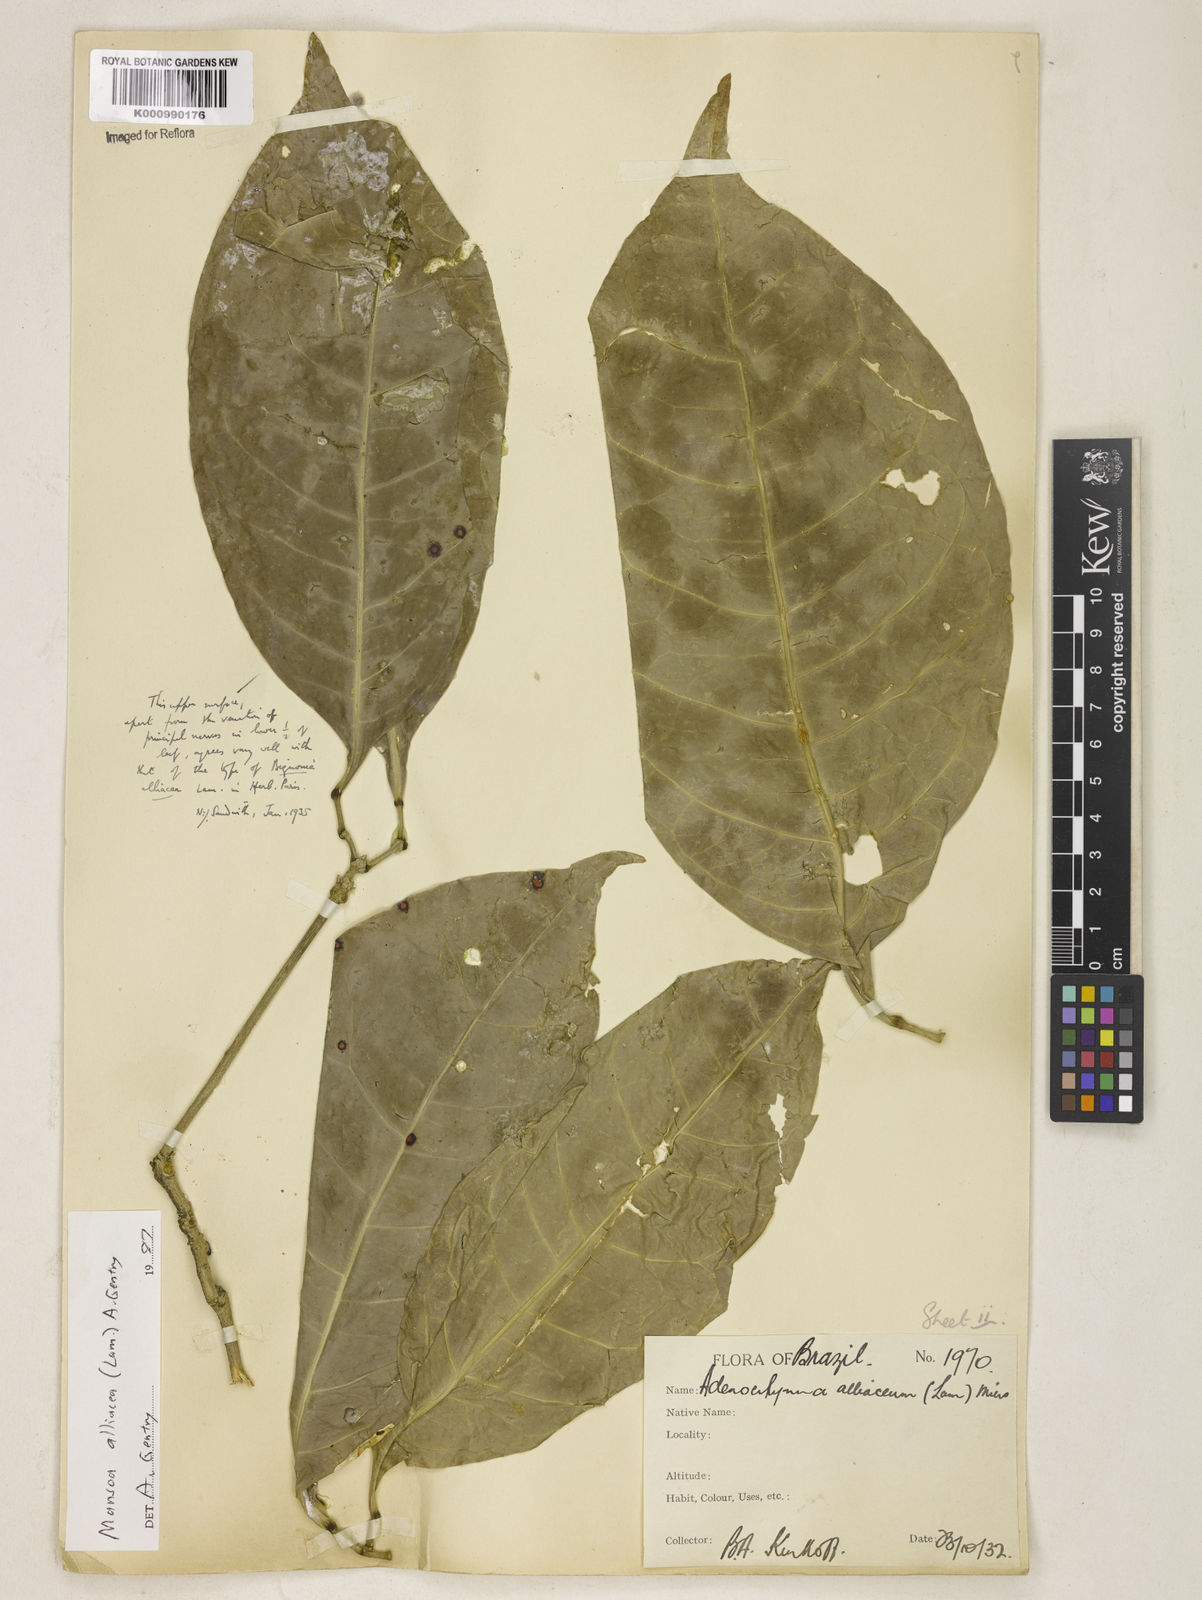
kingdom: Plantae
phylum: Tracheophyta
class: Magnoliopsida
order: Lamiales
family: Bignoniaceae
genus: Mansoa
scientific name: Mansoa alliacea
